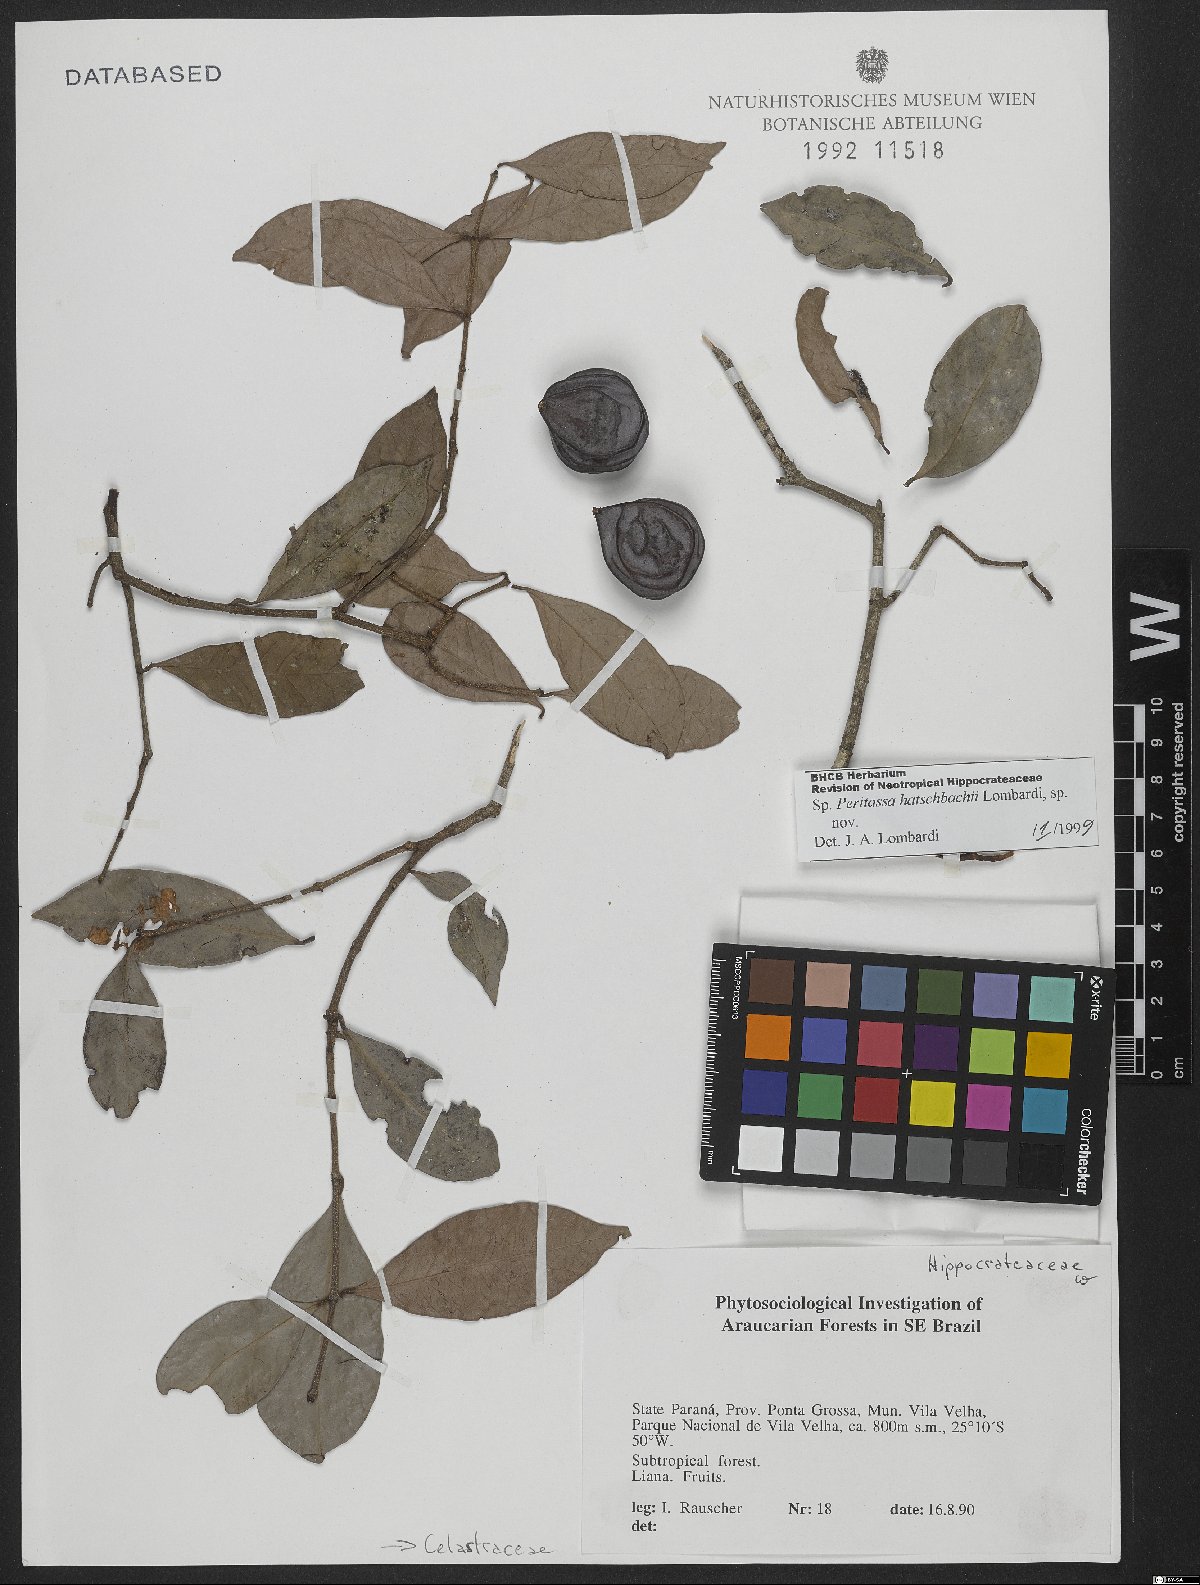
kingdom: Plantae
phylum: Tracheophyta
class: Magnoliopsida
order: Celastrales
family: Celastraceae
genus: Peritassa
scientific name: Peritassa hatschbachii
